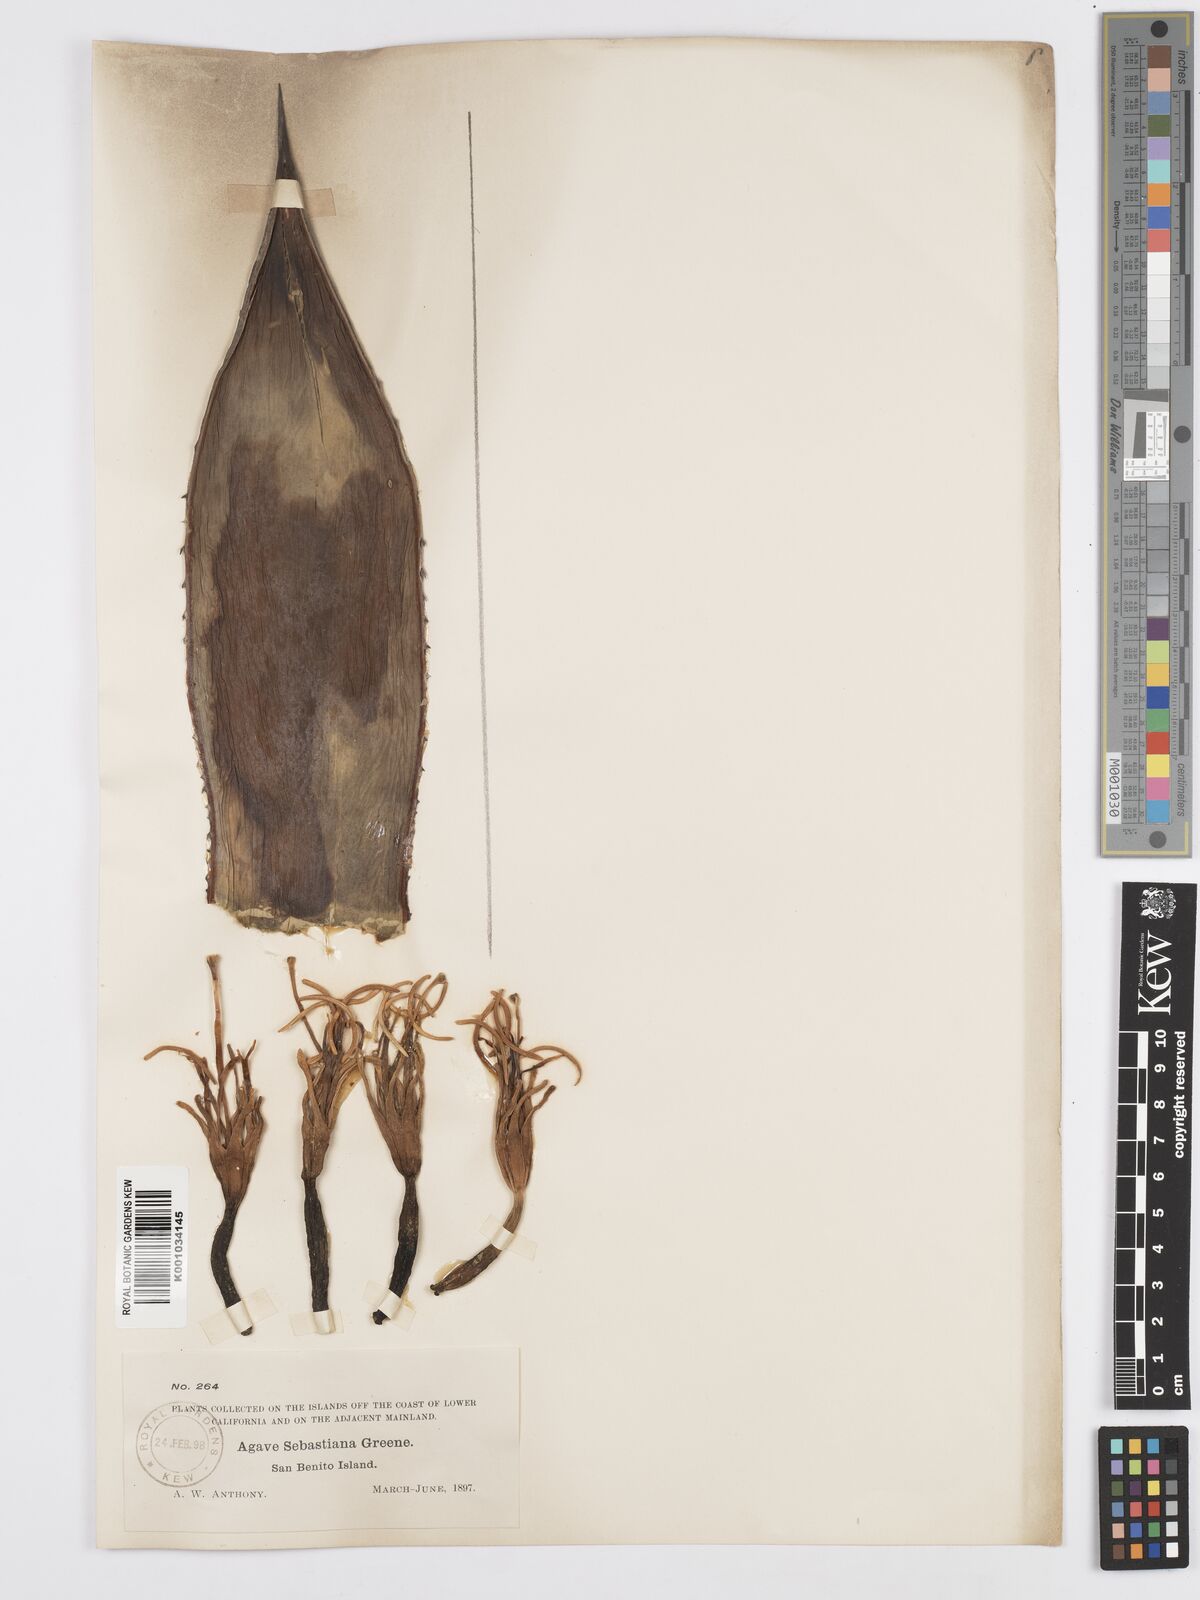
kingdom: Plantae
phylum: Tracheophyta
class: Liliopsida
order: Asparagales
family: Asparagaceae
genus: Agave
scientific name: Agave sebastiana
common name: Cedros agave
